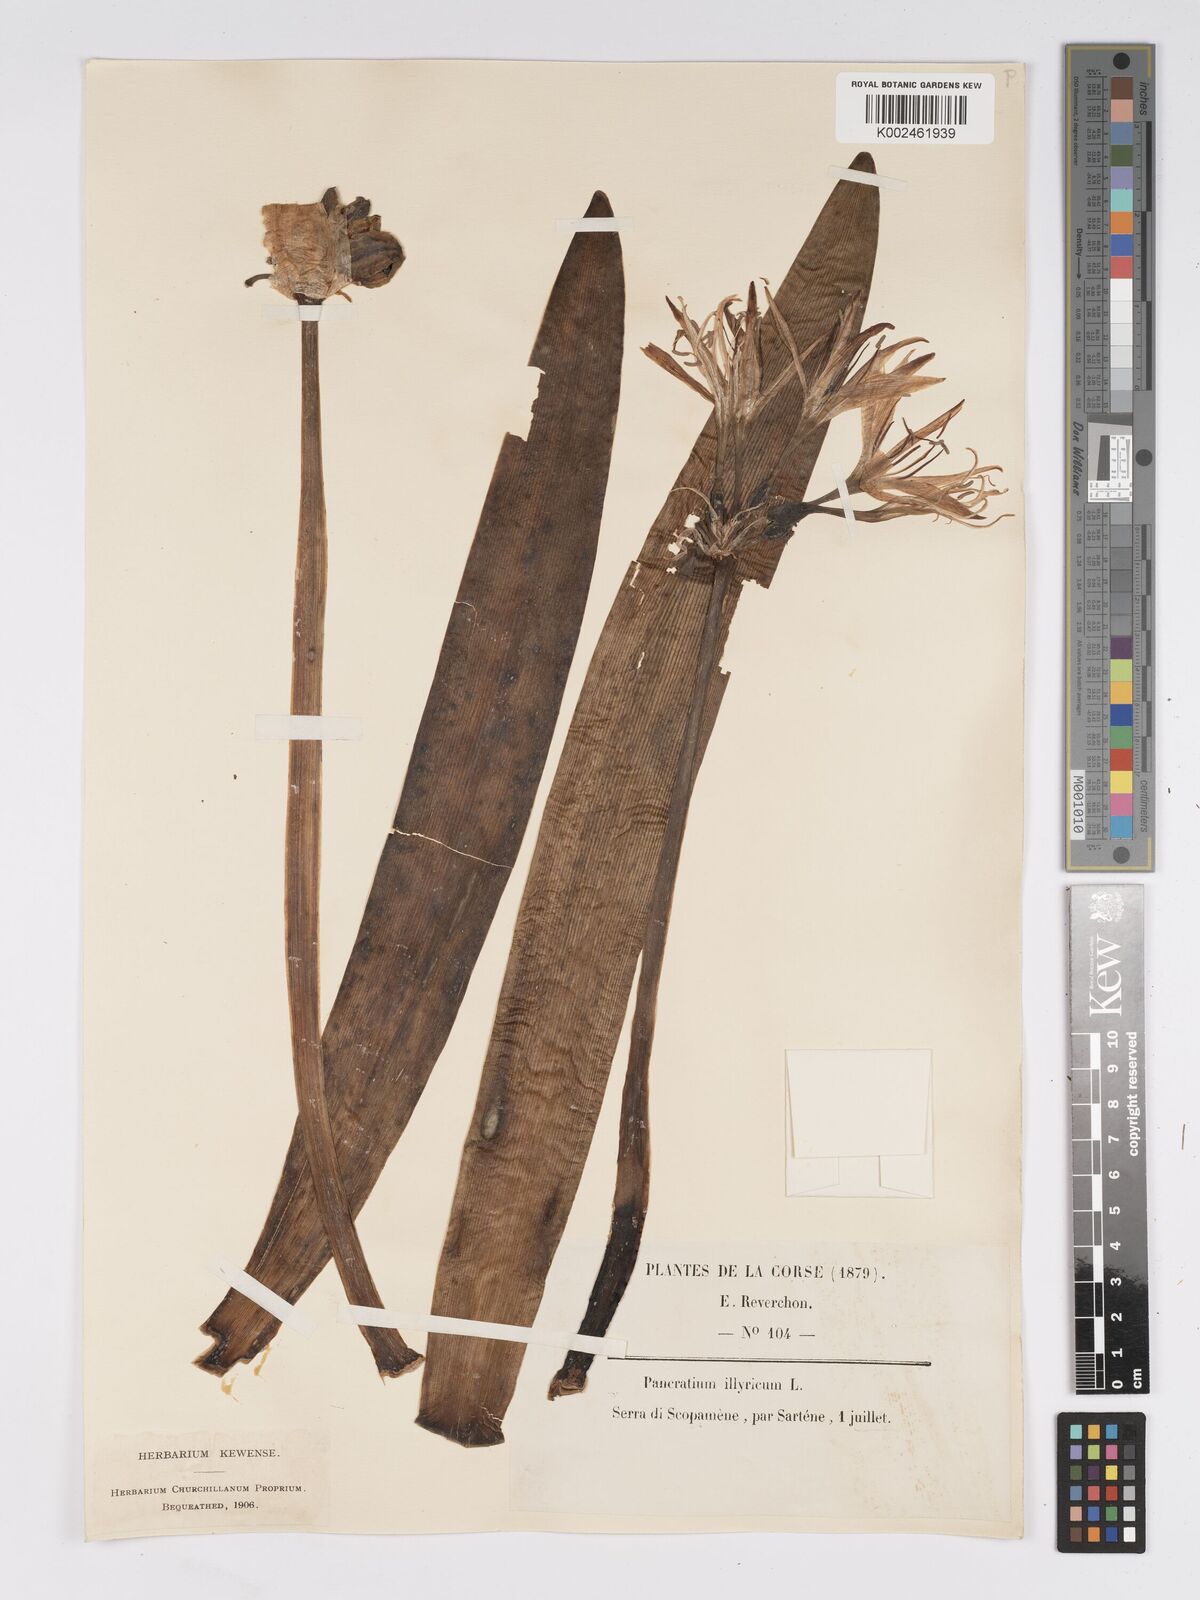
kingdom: Plantae
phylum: Tracheophyta
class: Liliopsida
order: Asparagales
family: Amaryllidaceae
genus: Pancratium
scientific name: Pancratium illyricum
